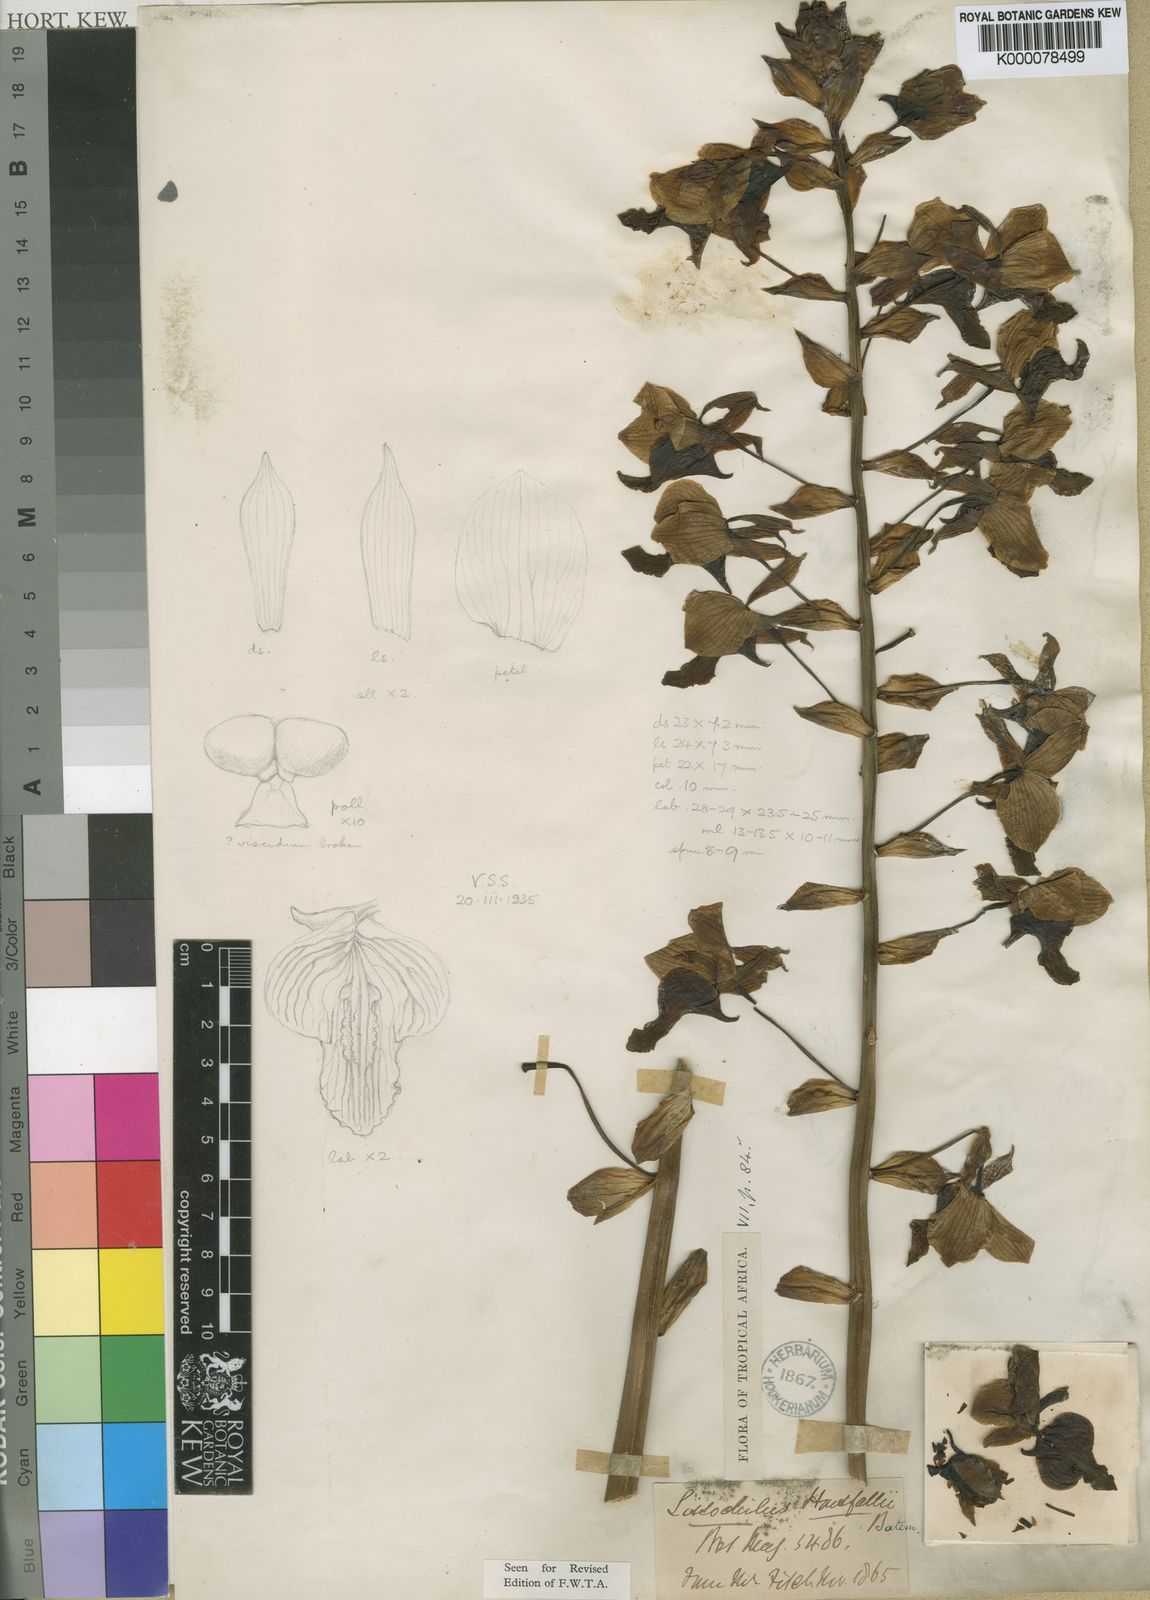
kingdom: Plantae
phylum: Tracheophyta
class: Liliopsida
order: Asparagales
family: Orchidaceae
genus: Eulophia
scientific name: Eulophia horsfallii
